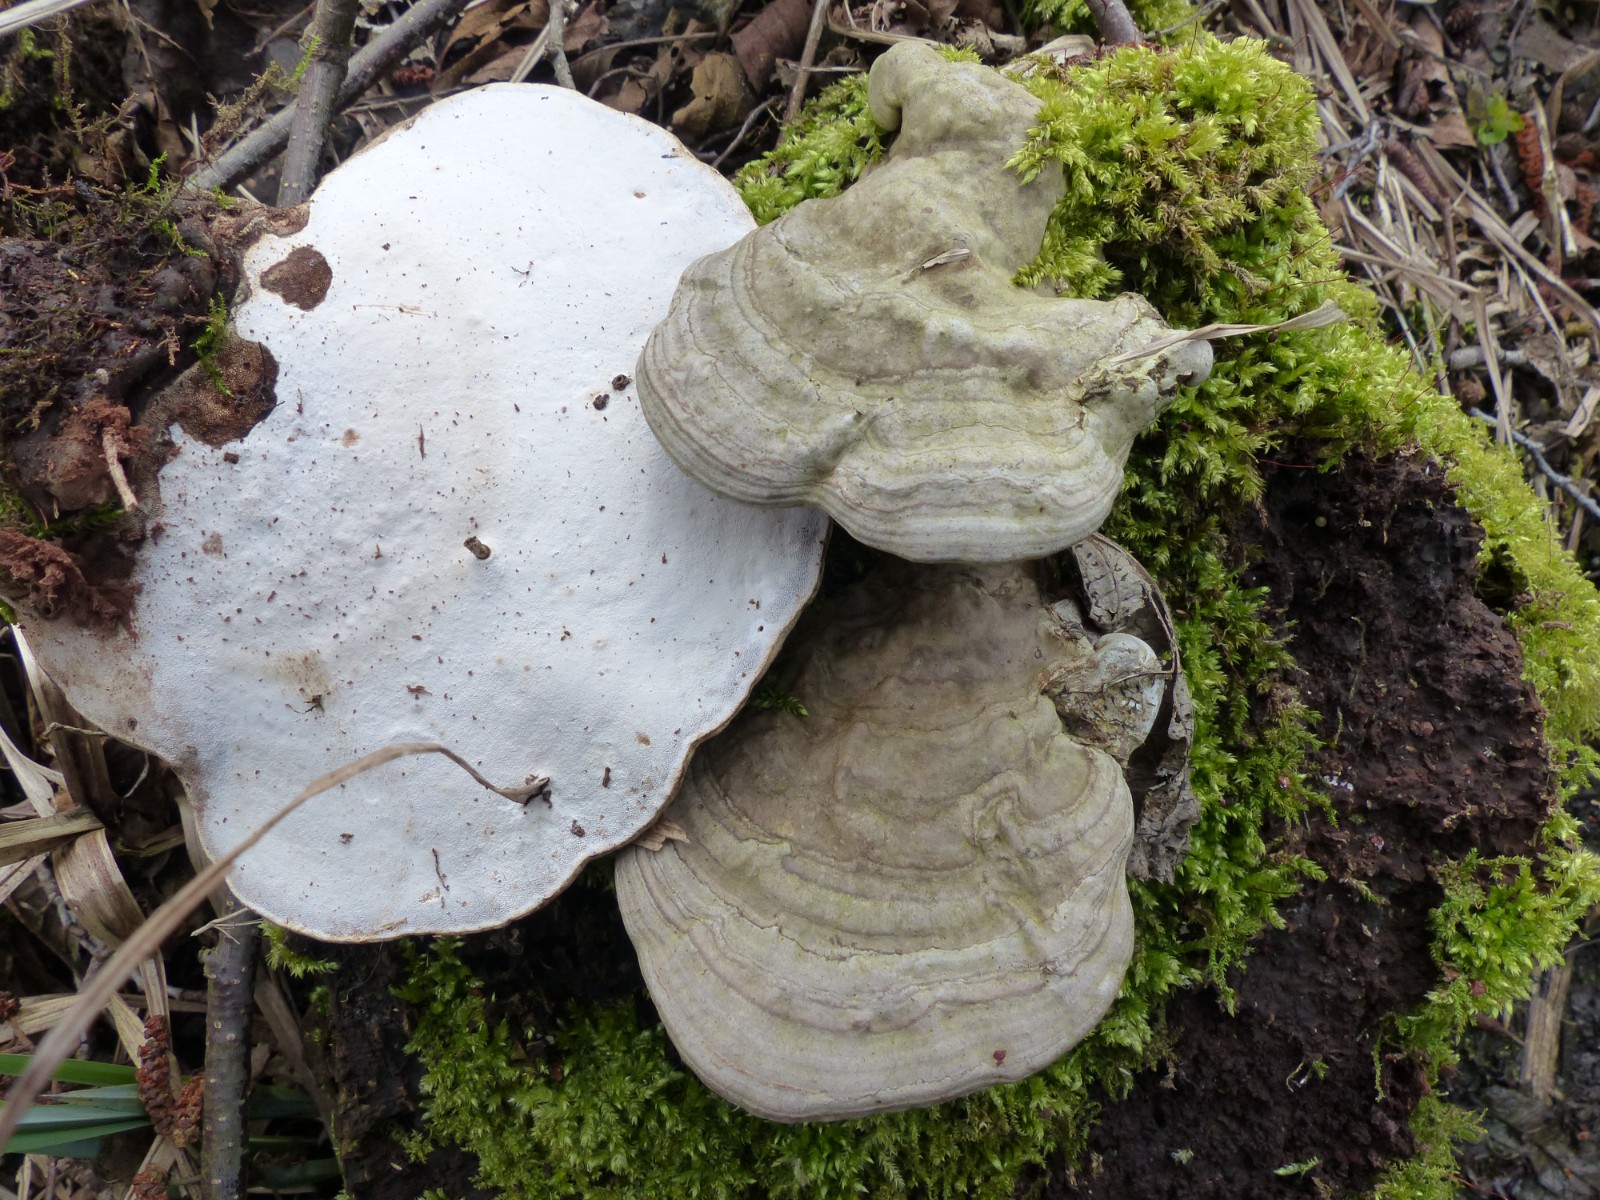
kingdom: Fungi
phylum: Basidiomycota
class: Agaricomycetes
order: Polyporales
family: Polyporaceae
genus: Ganoderma
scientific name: Ganoderma applanatum
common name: flad lakporesvamp
